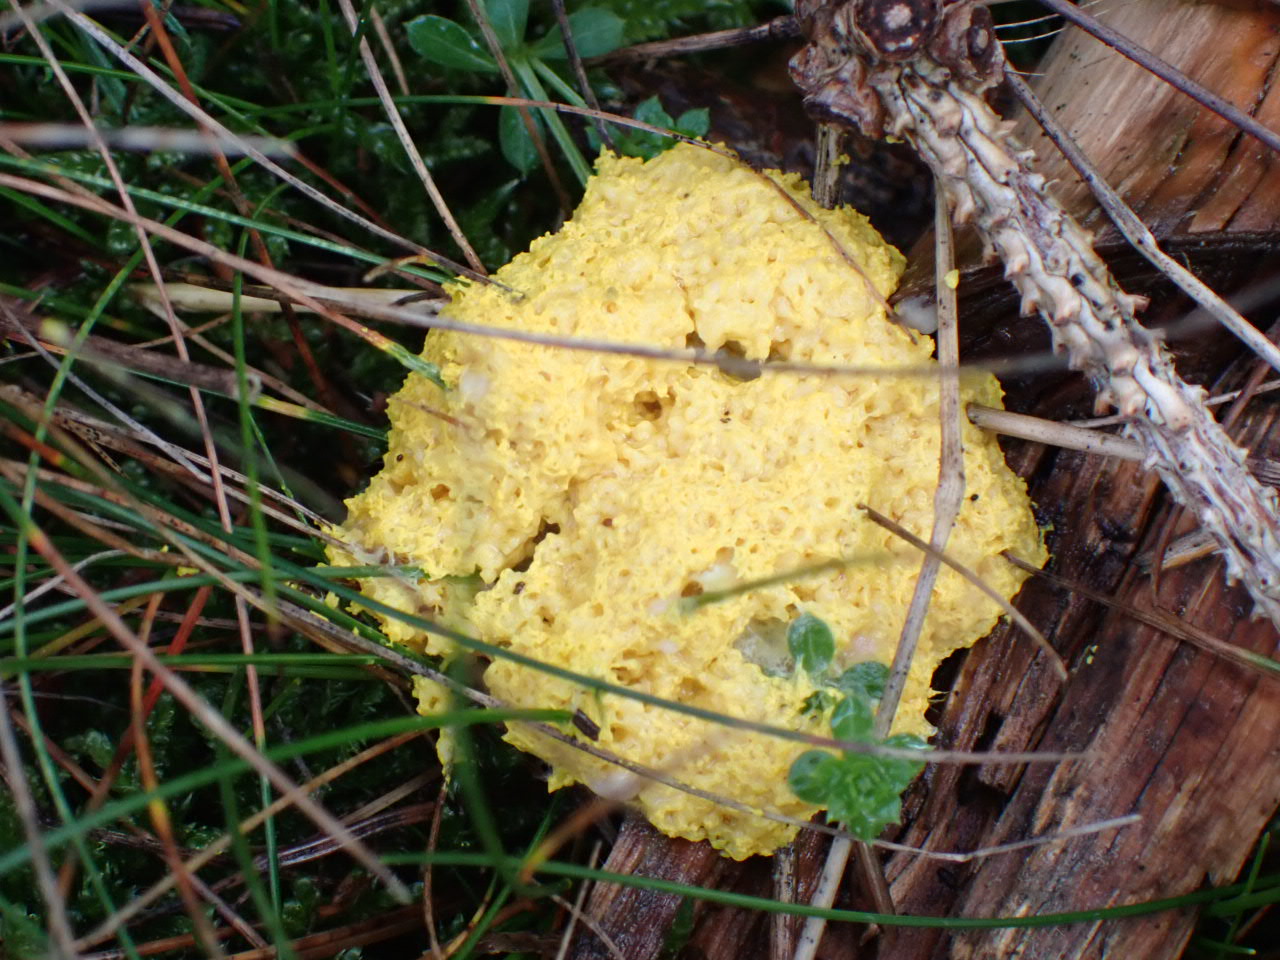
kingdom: Protozoa
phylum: Mycetozoa
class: Myxomycetes
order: Physarales
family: Physaraceae
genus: Fuligo
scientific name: Fuligo septica
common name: gul troldsmør
